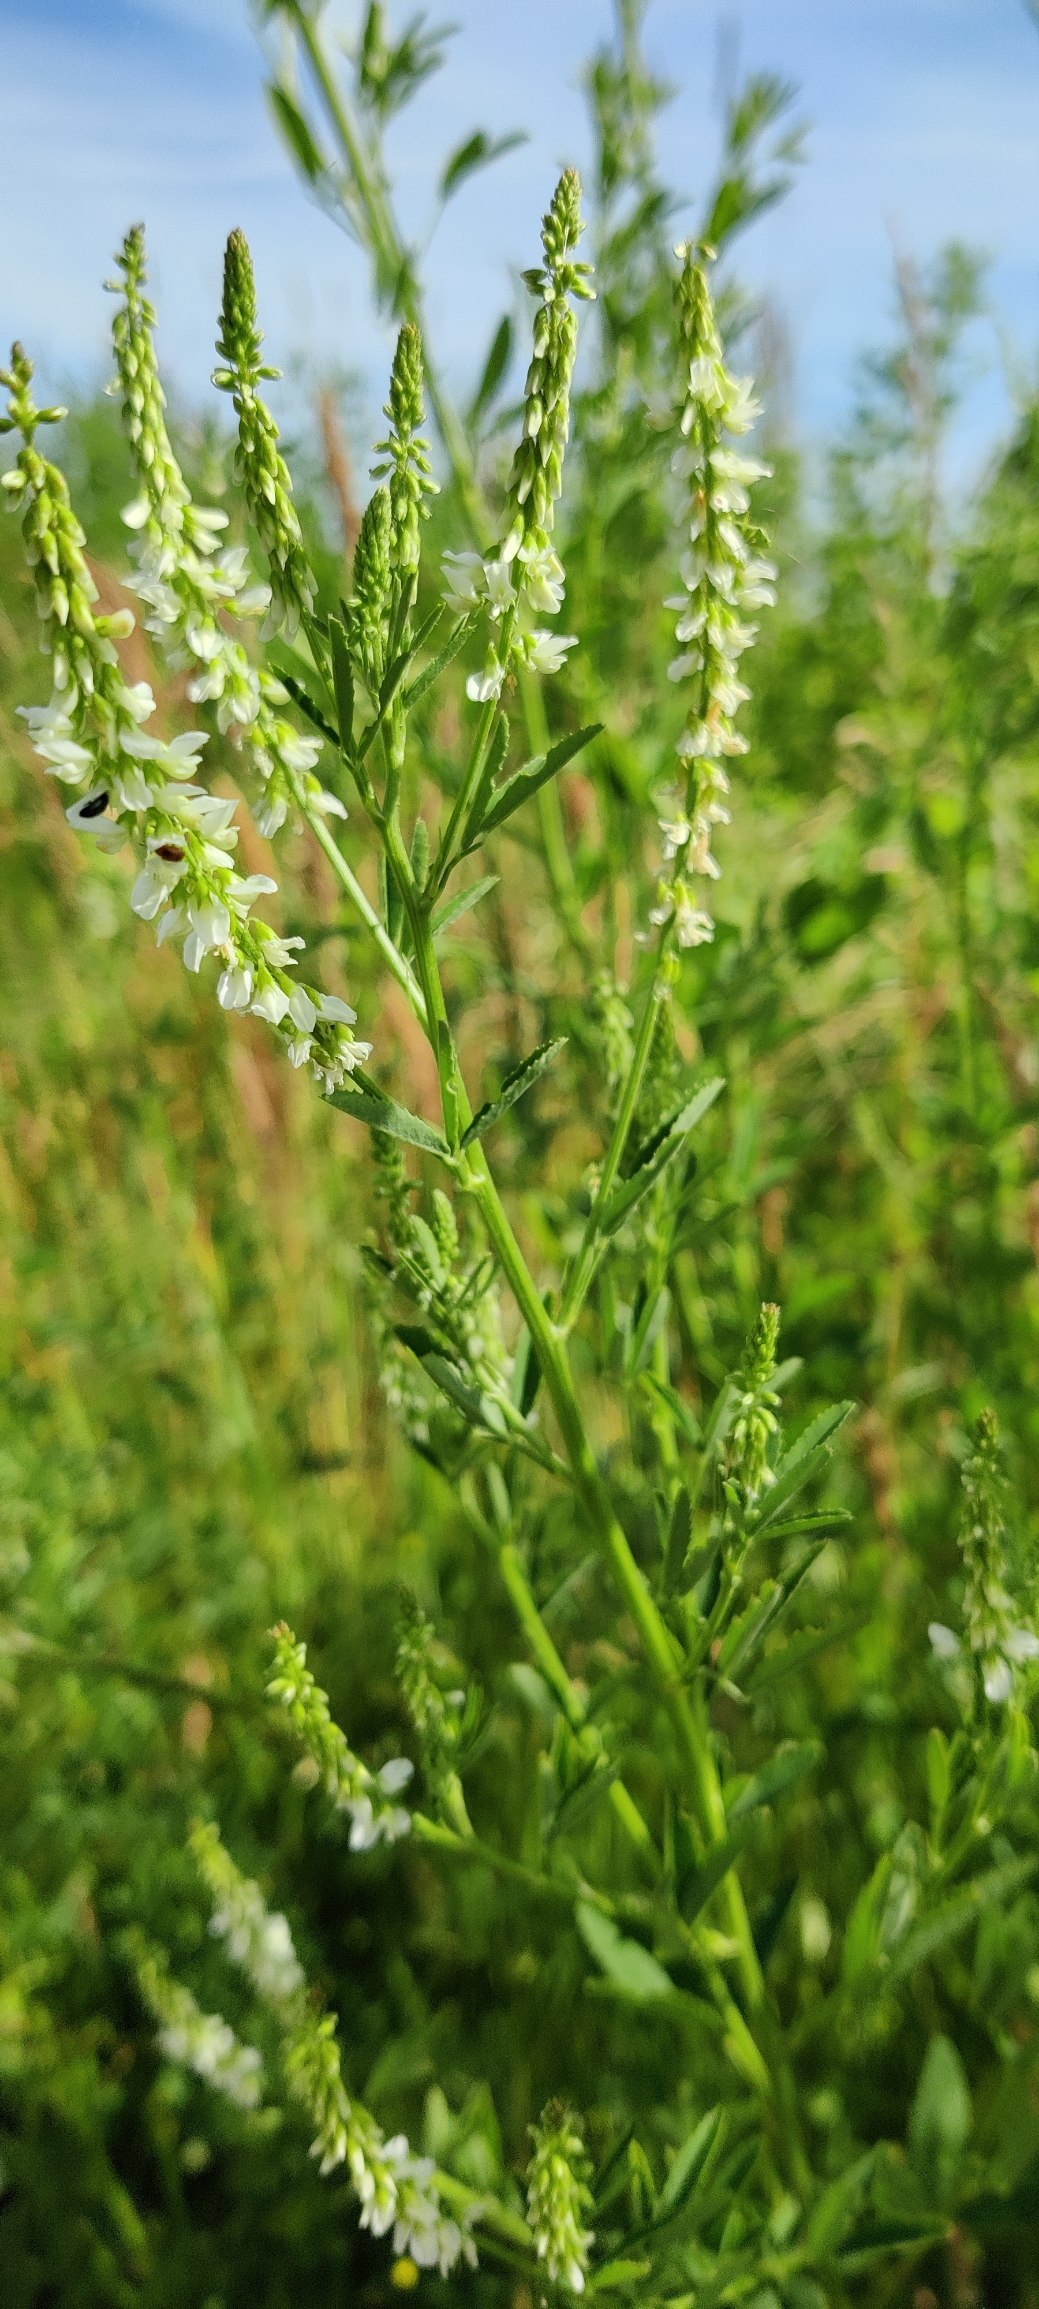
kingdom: Plantae
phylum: Tracheophyta
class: Magnoliopsida
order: Fabales
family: Fabaceae
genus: Melilotus
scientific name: Melilotus albus
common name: Hvid stenkløver
